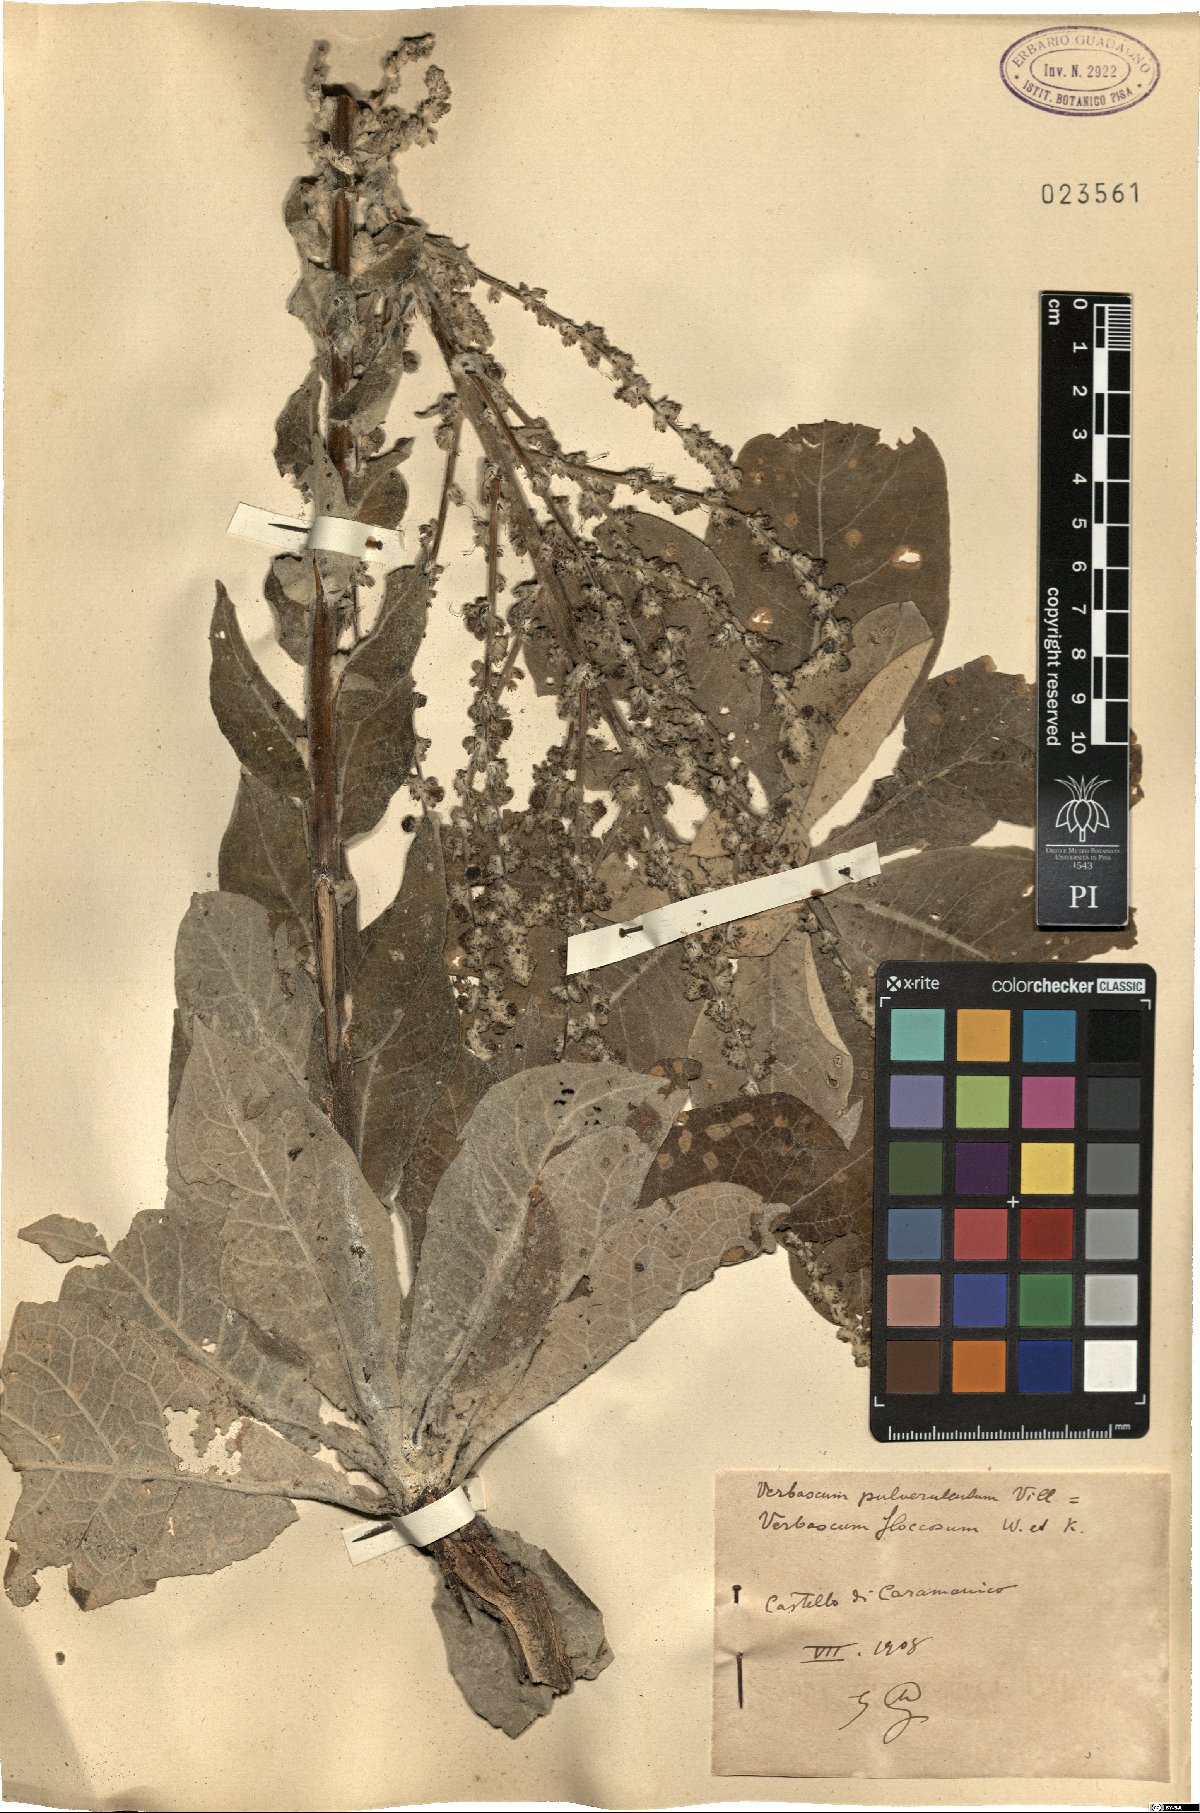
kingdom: Plantae
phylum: Tracheophyta
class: Magnoliopsida
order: Lamiales
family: Scrophulariaceae
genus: Verbascum
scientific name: Verbascum pulverulentum
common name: Broad-leaf mullein
